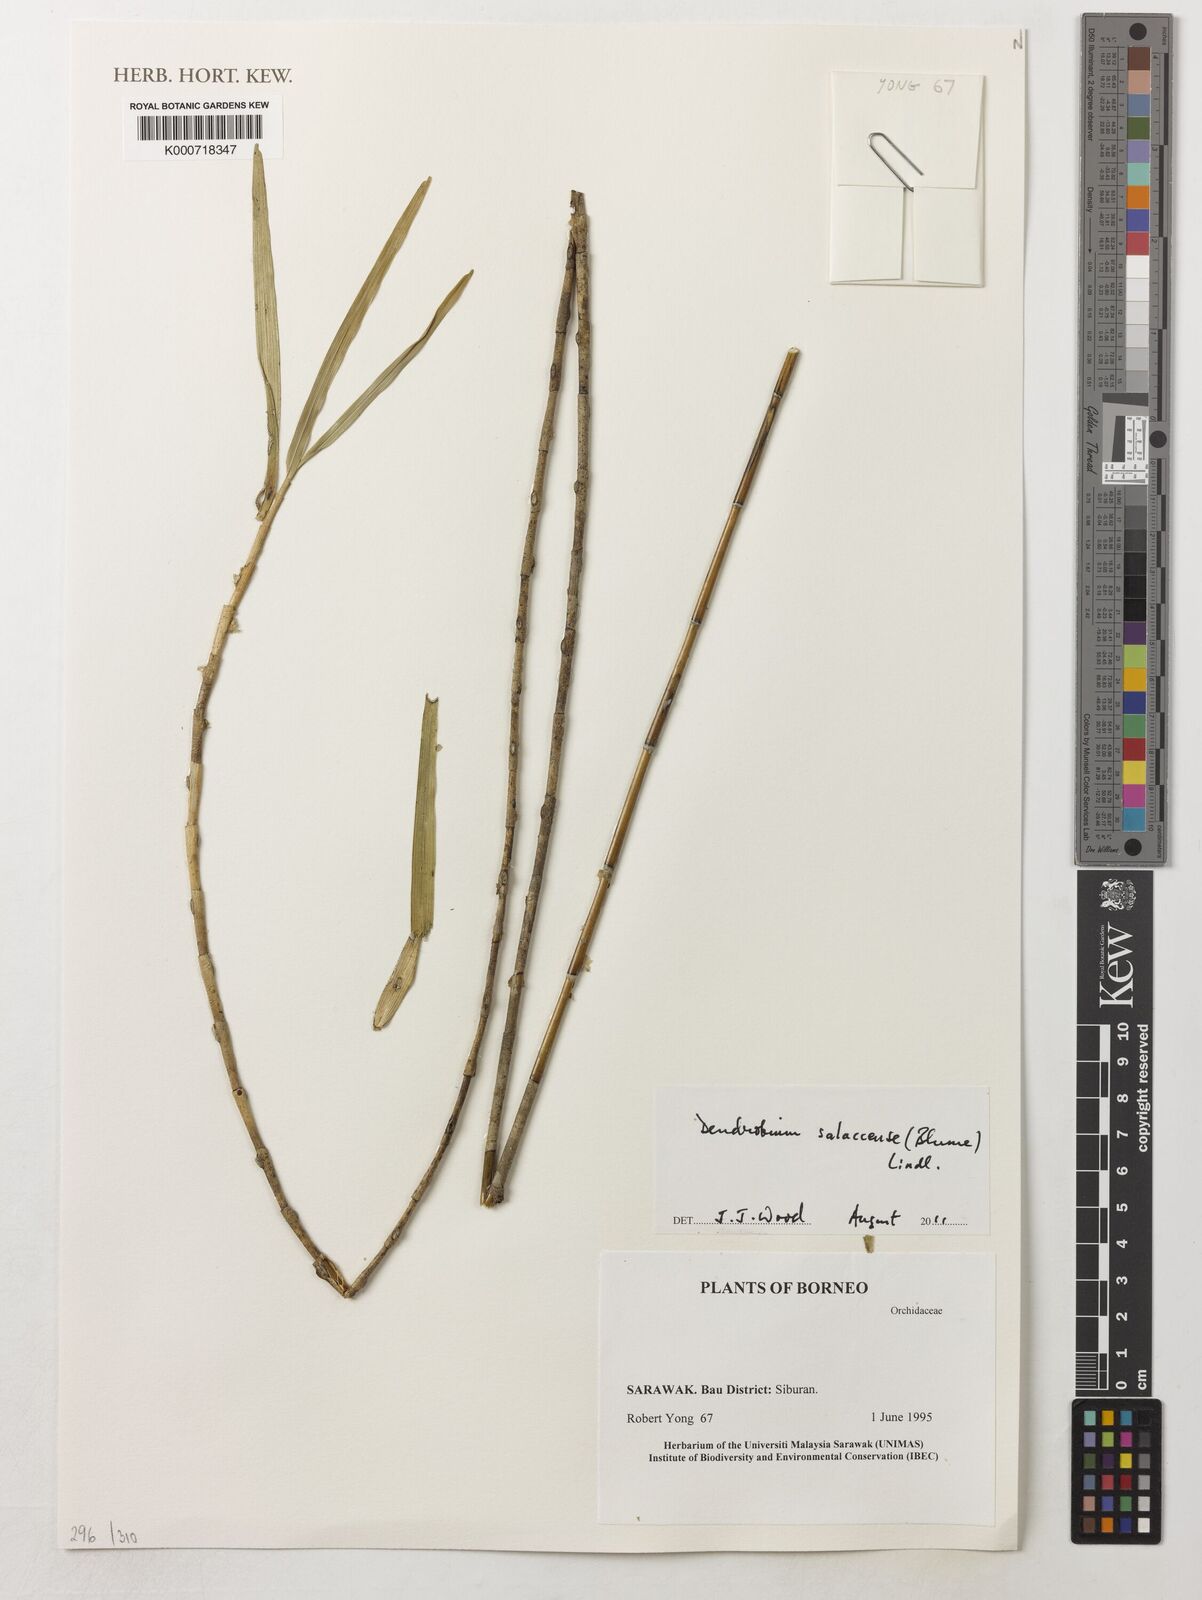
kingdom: Plantae
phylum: Tracheophyta
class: Liliopsida
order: Asparagales
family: Orchidaceae
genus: Dendrobium
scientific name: Dendrobium salaccense
